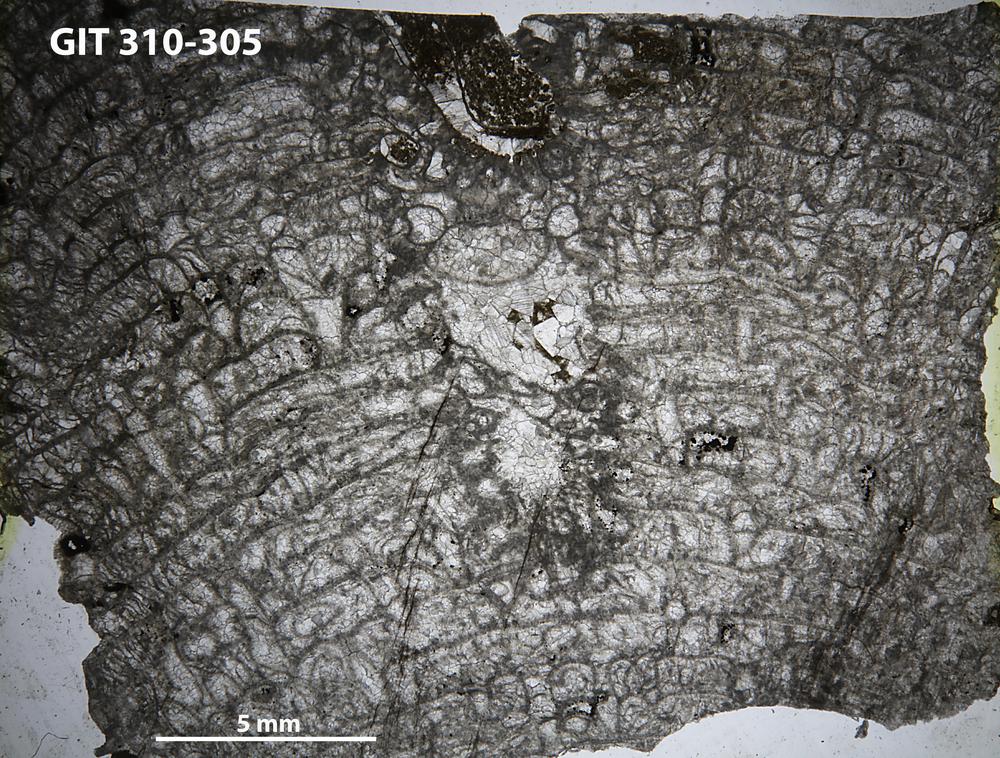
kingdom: Animalia
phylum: Porifera
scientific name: Porifera
